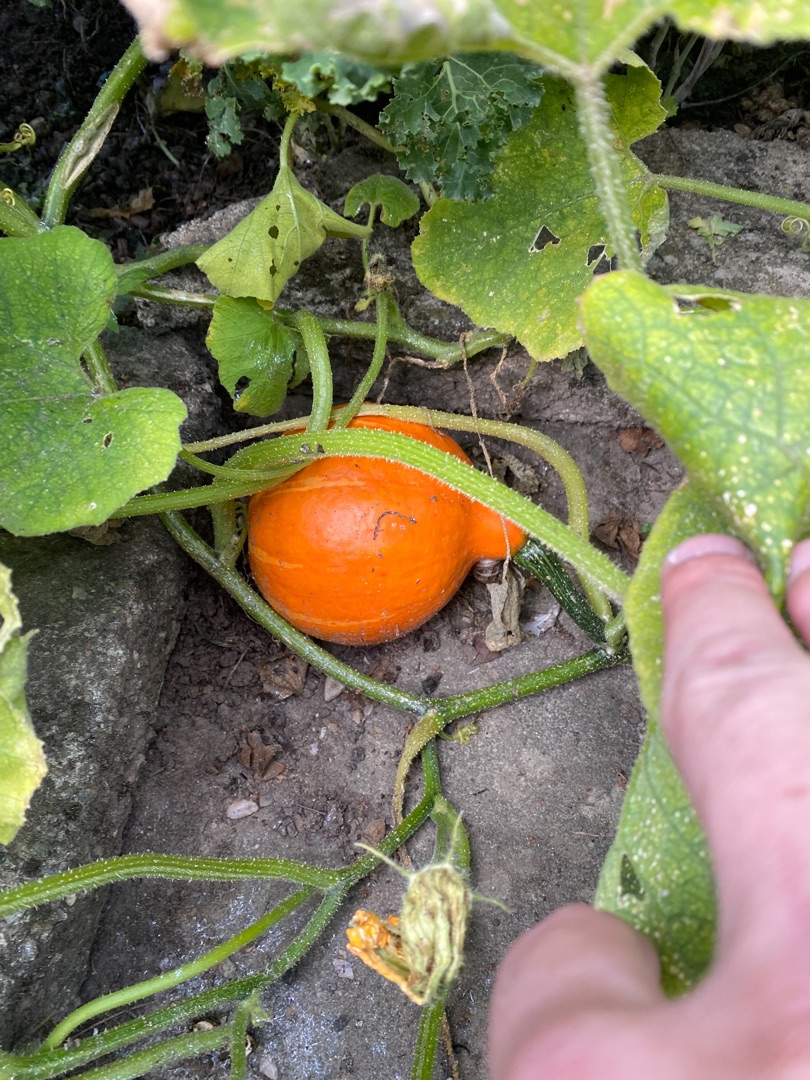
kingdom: Plantae
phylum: Tracheophyta
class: Magnoliopsida
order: Cucurbitales
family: Cucurbitaceae
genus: Cucurbita
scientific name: Cucurbita pepo
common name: Mandel-græskar
